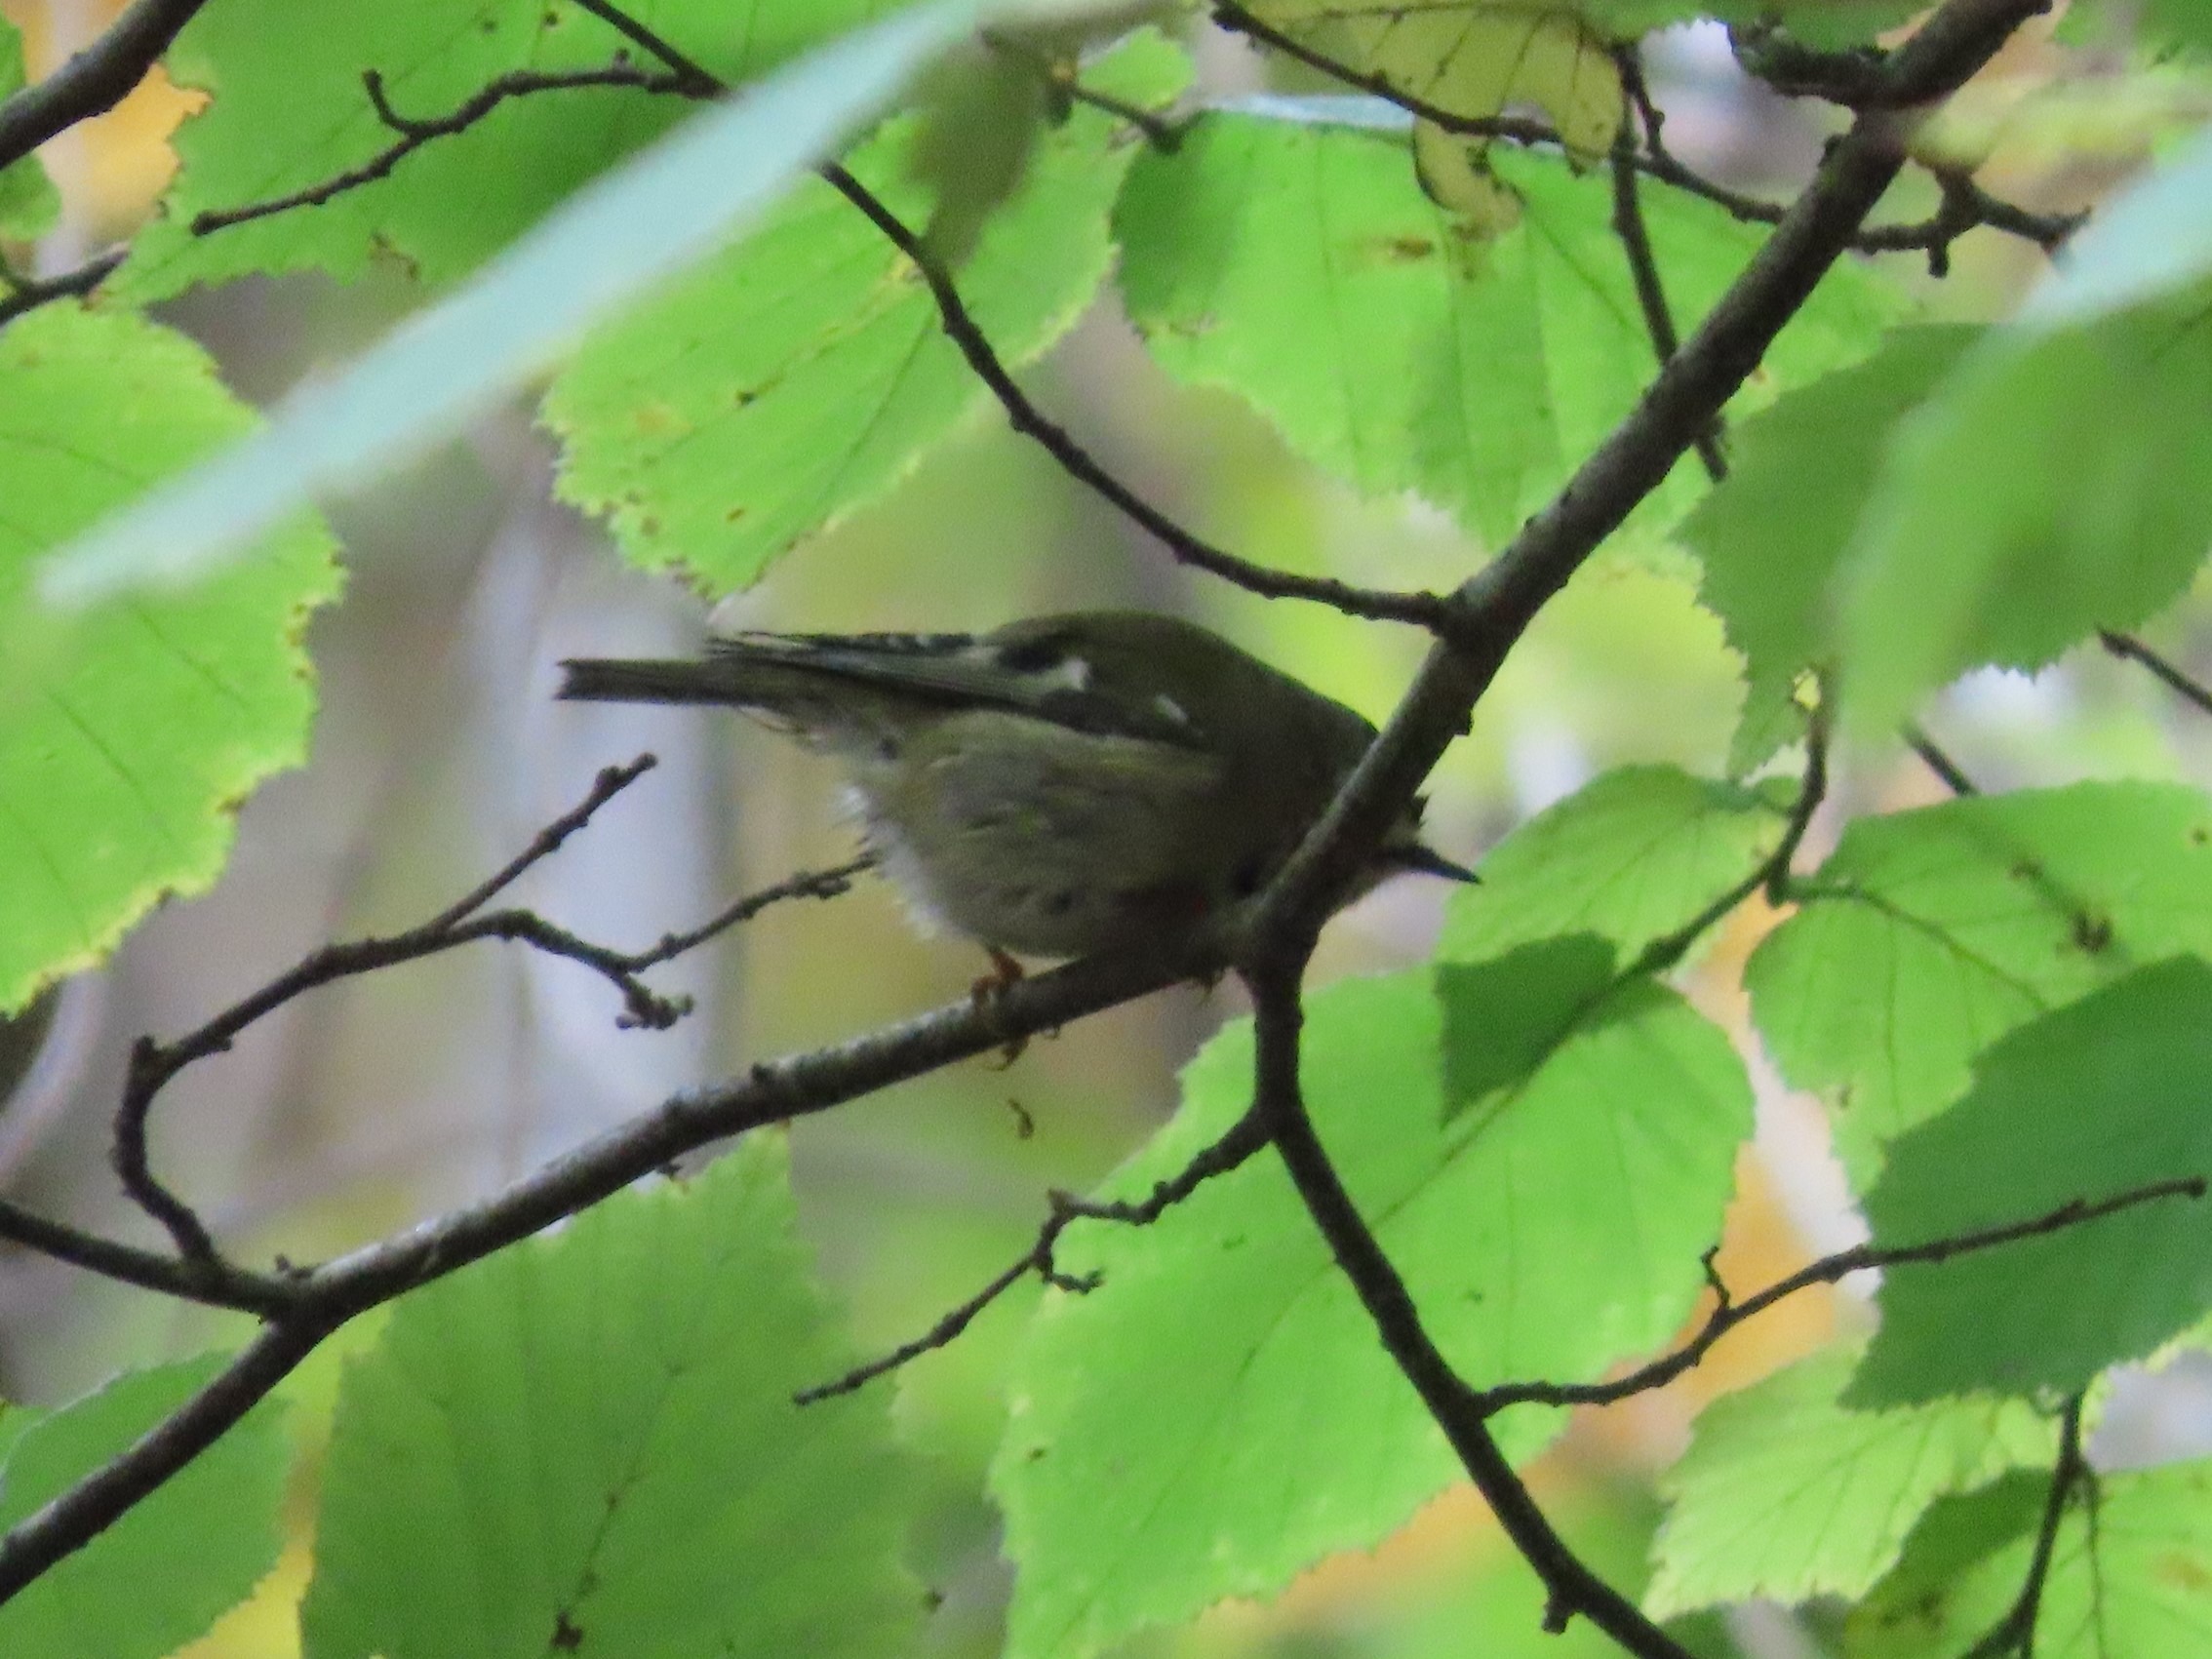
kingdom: Animalia
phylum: Chordata
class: Aves
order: Passeriformes
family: Regulidae
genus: Regulus
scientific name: Regulus regulus
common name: Fuglekonge
